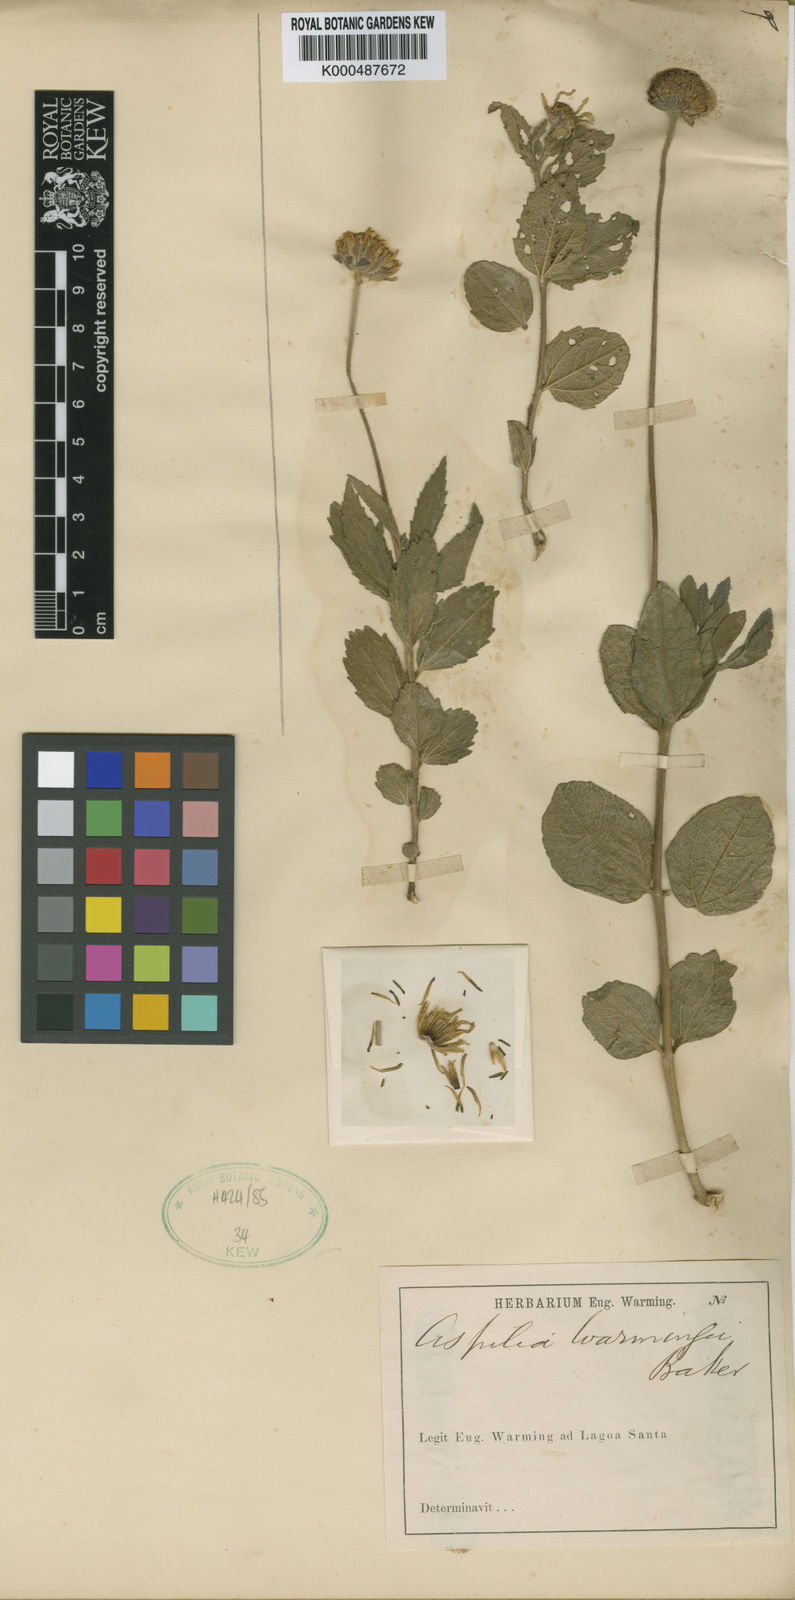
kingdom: Plantae
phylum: Tracheophyta
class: Magnoliopsida
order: Asterales
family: Asteraceae
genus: Wedelia
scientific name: Wedelia warmingii
